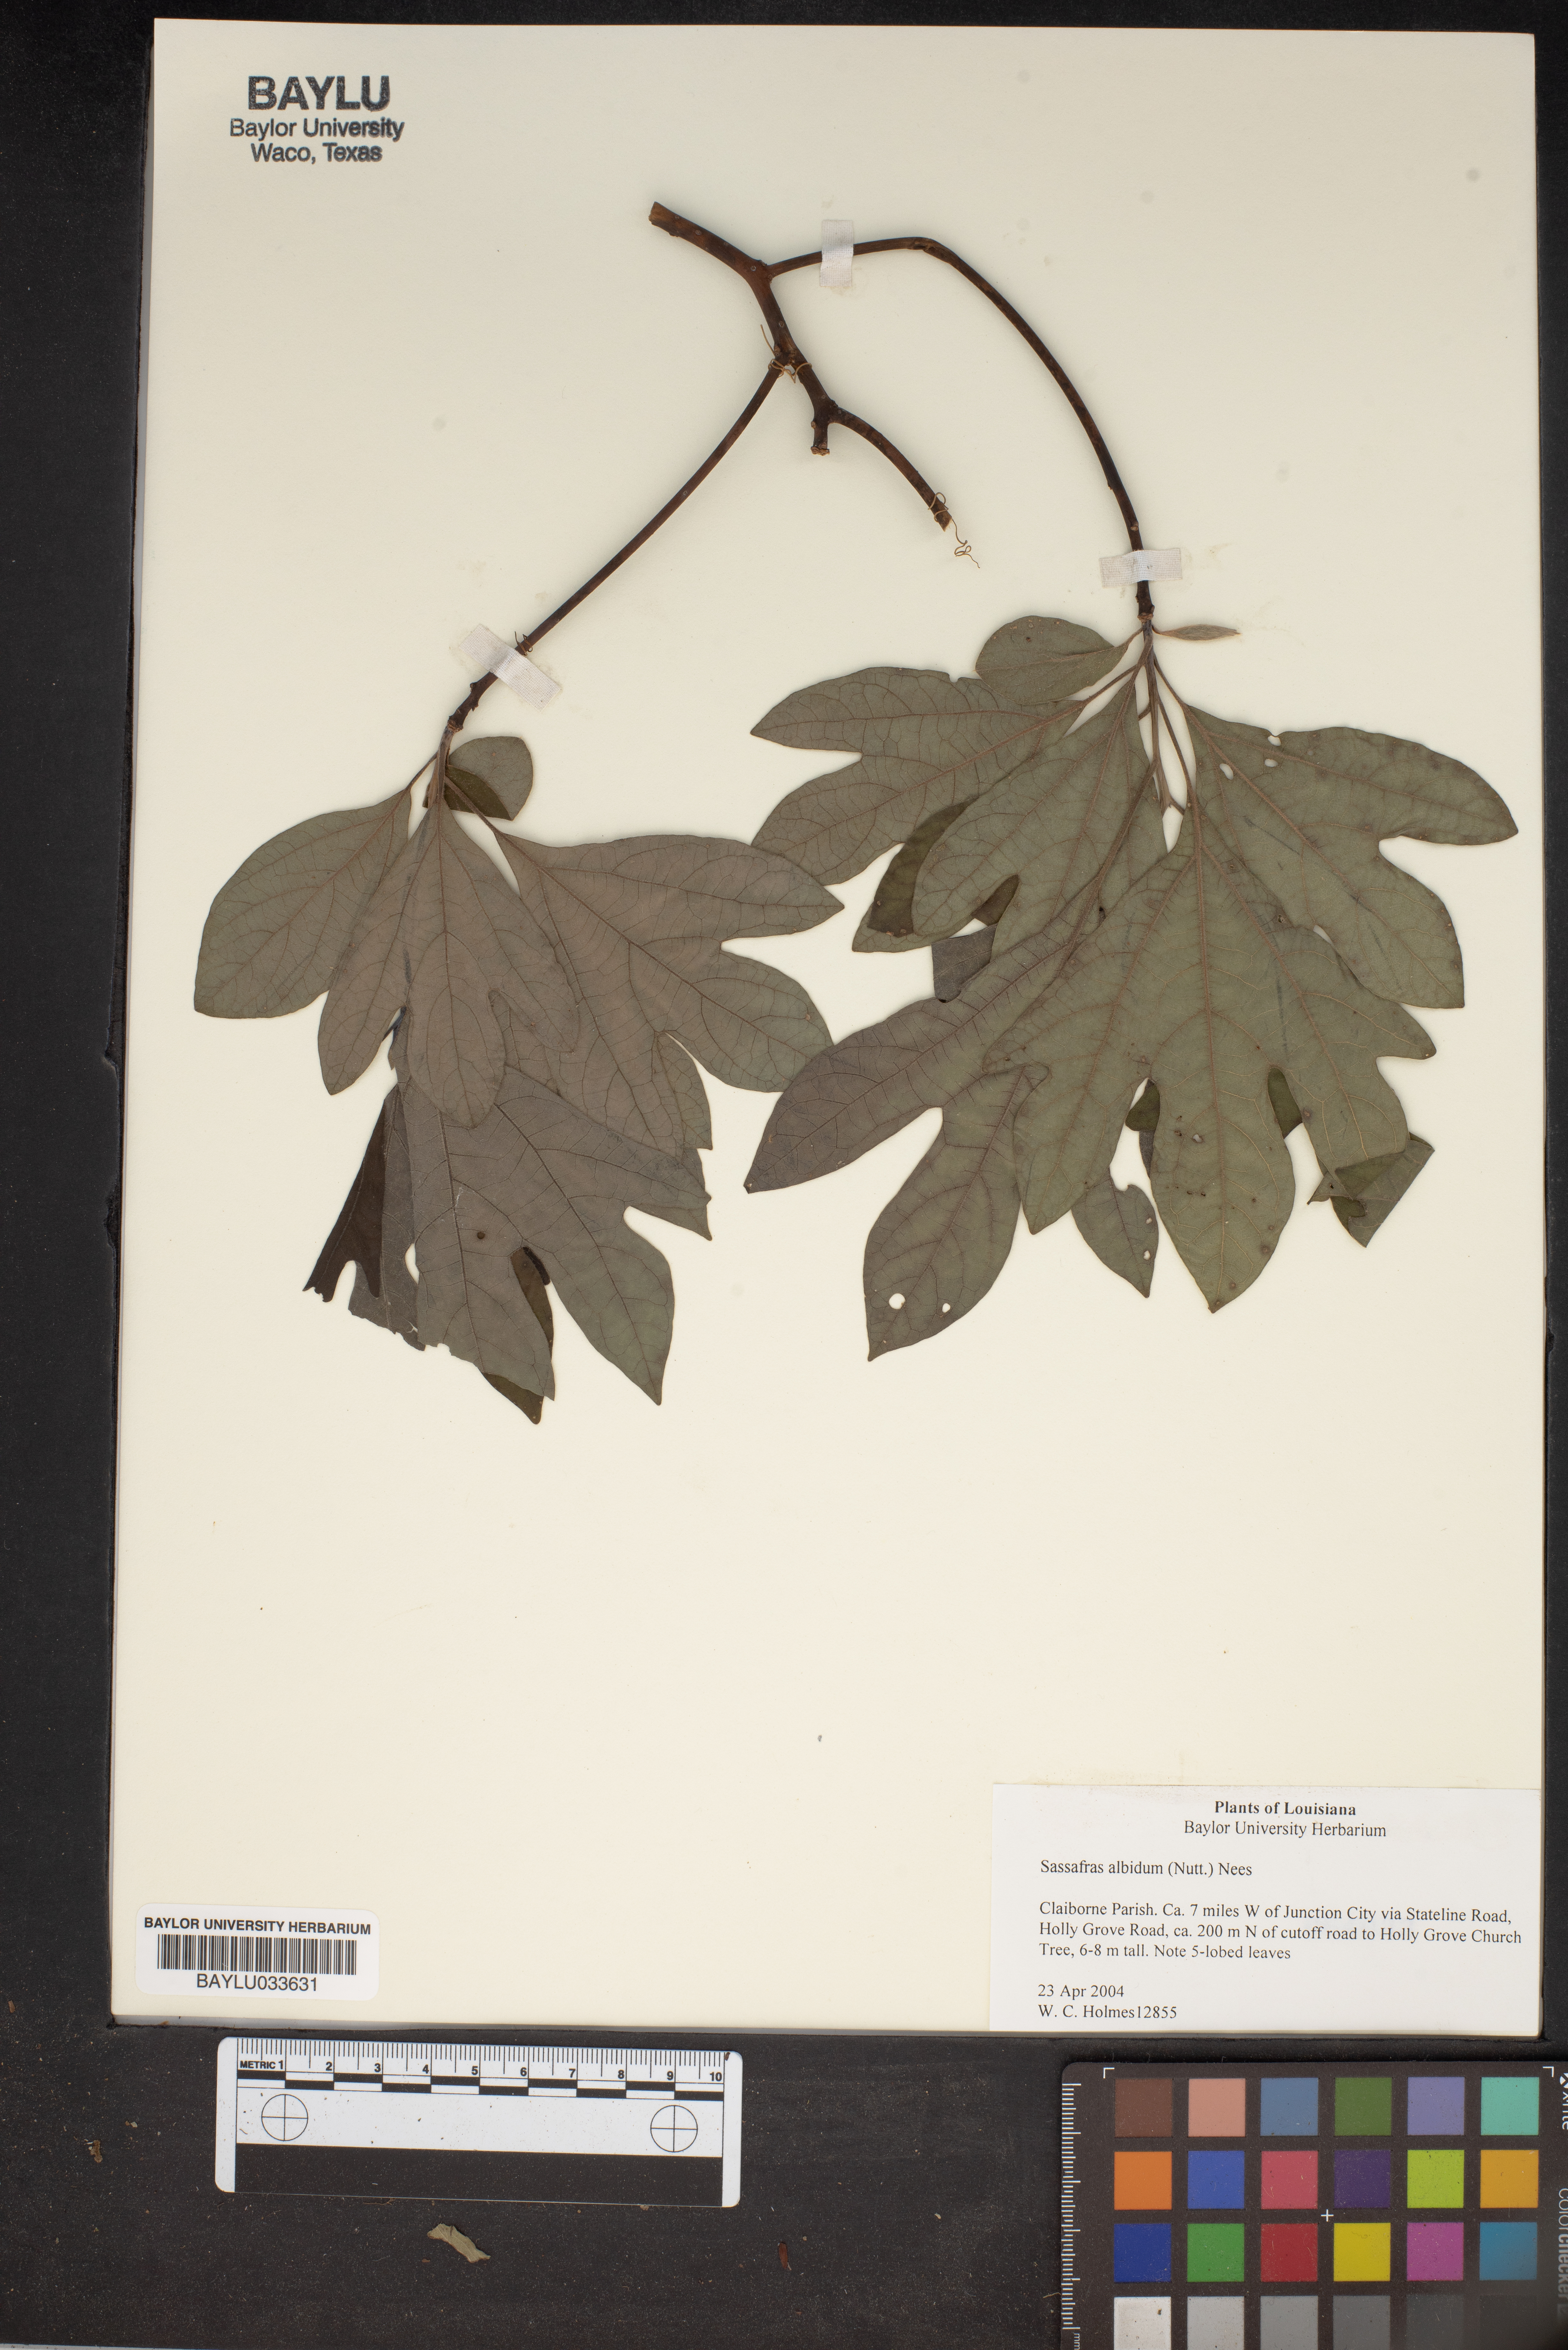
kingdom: Plantae
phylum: Tracheophyta
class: Magnoliopsida
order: Laurales
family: Lauraceae
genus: Sassafras
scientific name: Sassafras albidum
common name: Sassafras
